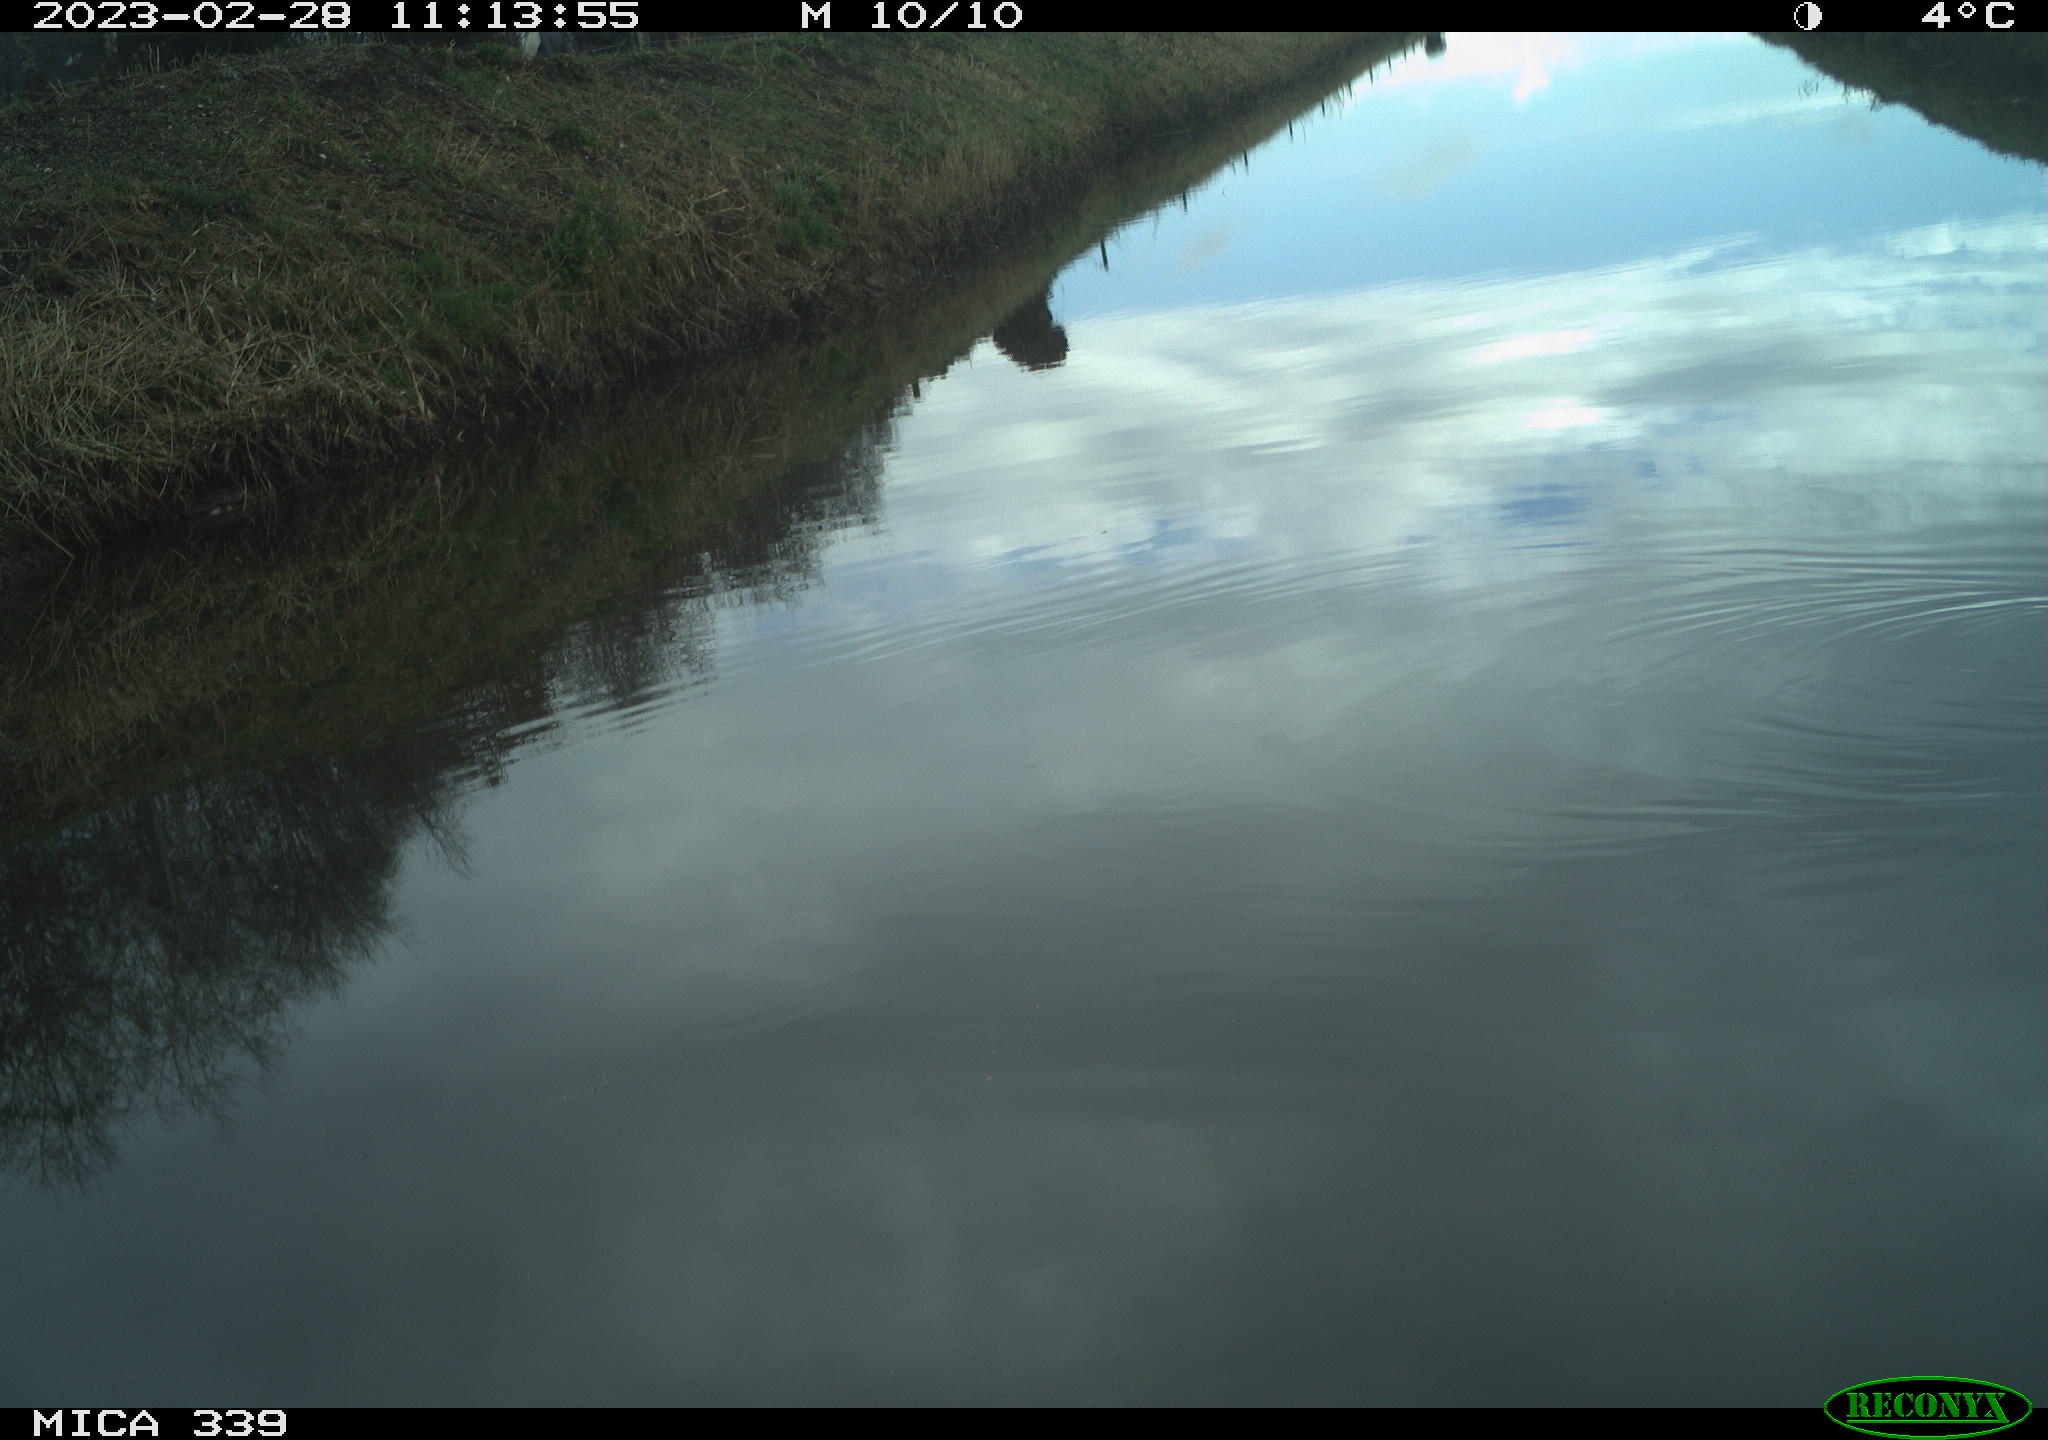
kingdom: Animalia
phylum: Chordata
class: Aves
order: Gruiformes
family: Rallidae
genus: Gallinula
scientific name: Gallinula chloropus
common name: Common moorhen
